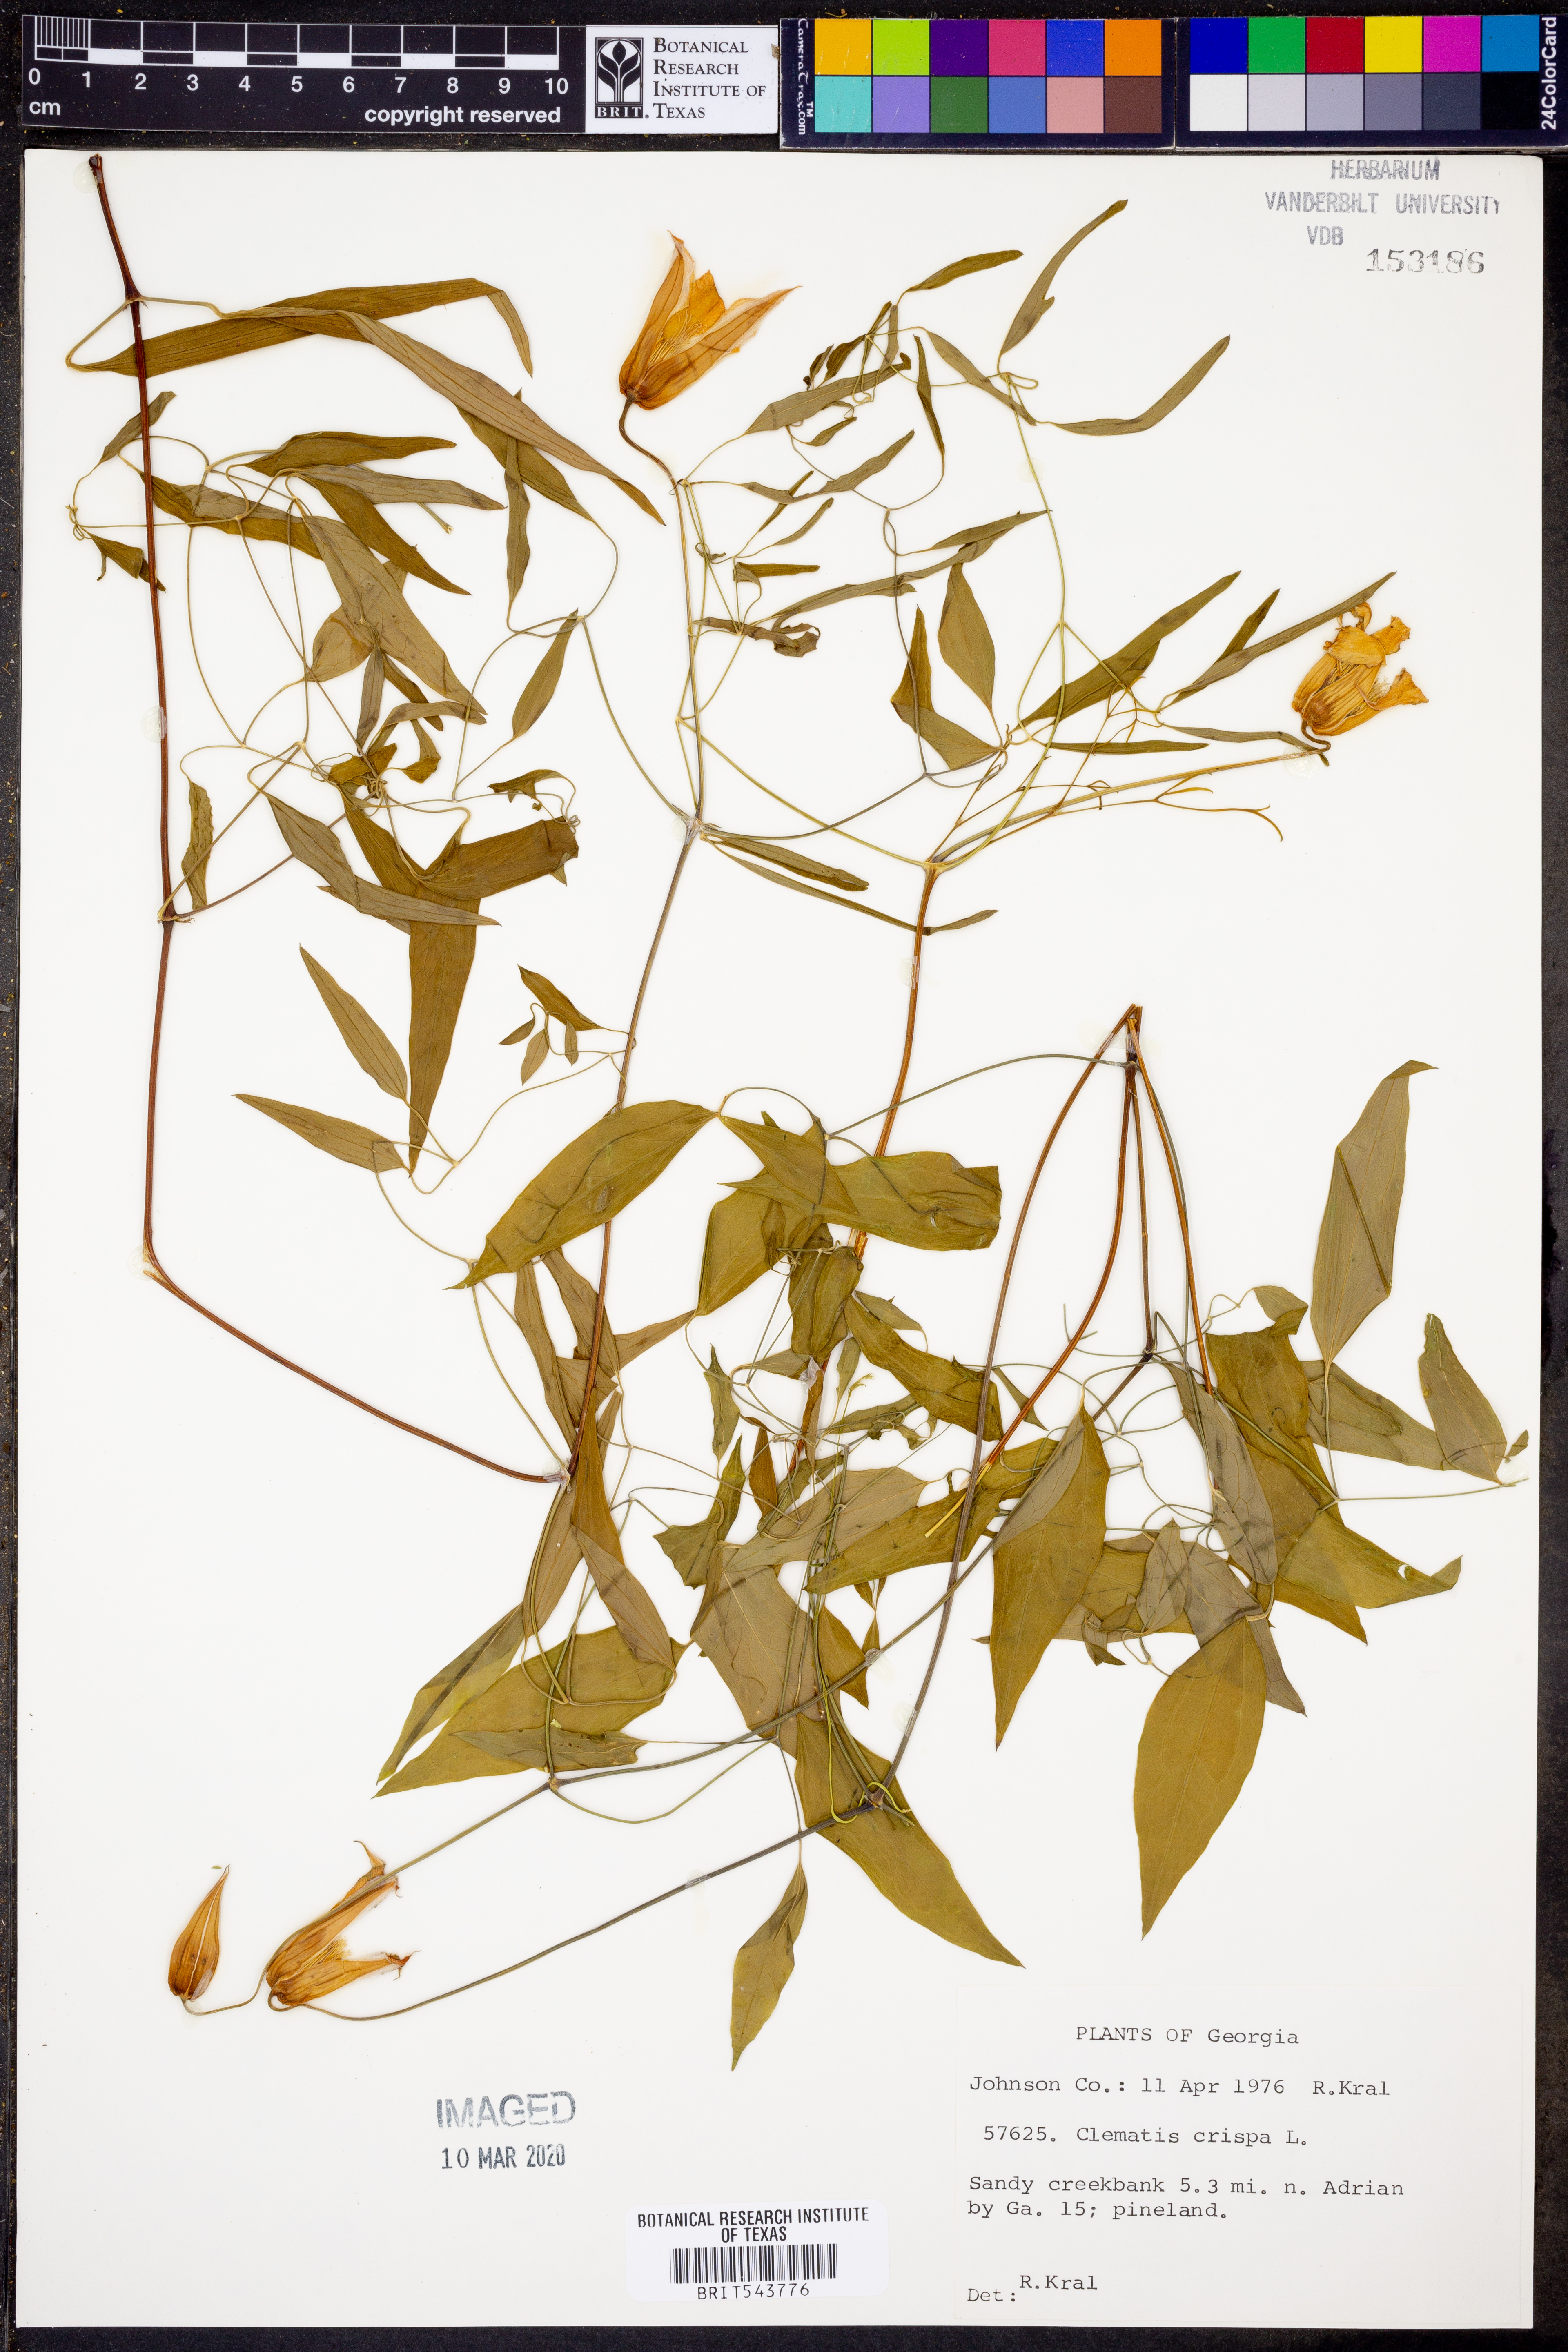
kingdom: Plantae
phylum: Tracheophyta
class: Magnoliopsida
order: Ranunculales
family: Ranunculaceae
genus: Clematis
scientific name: Clematis crispa
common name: Curly clematis
